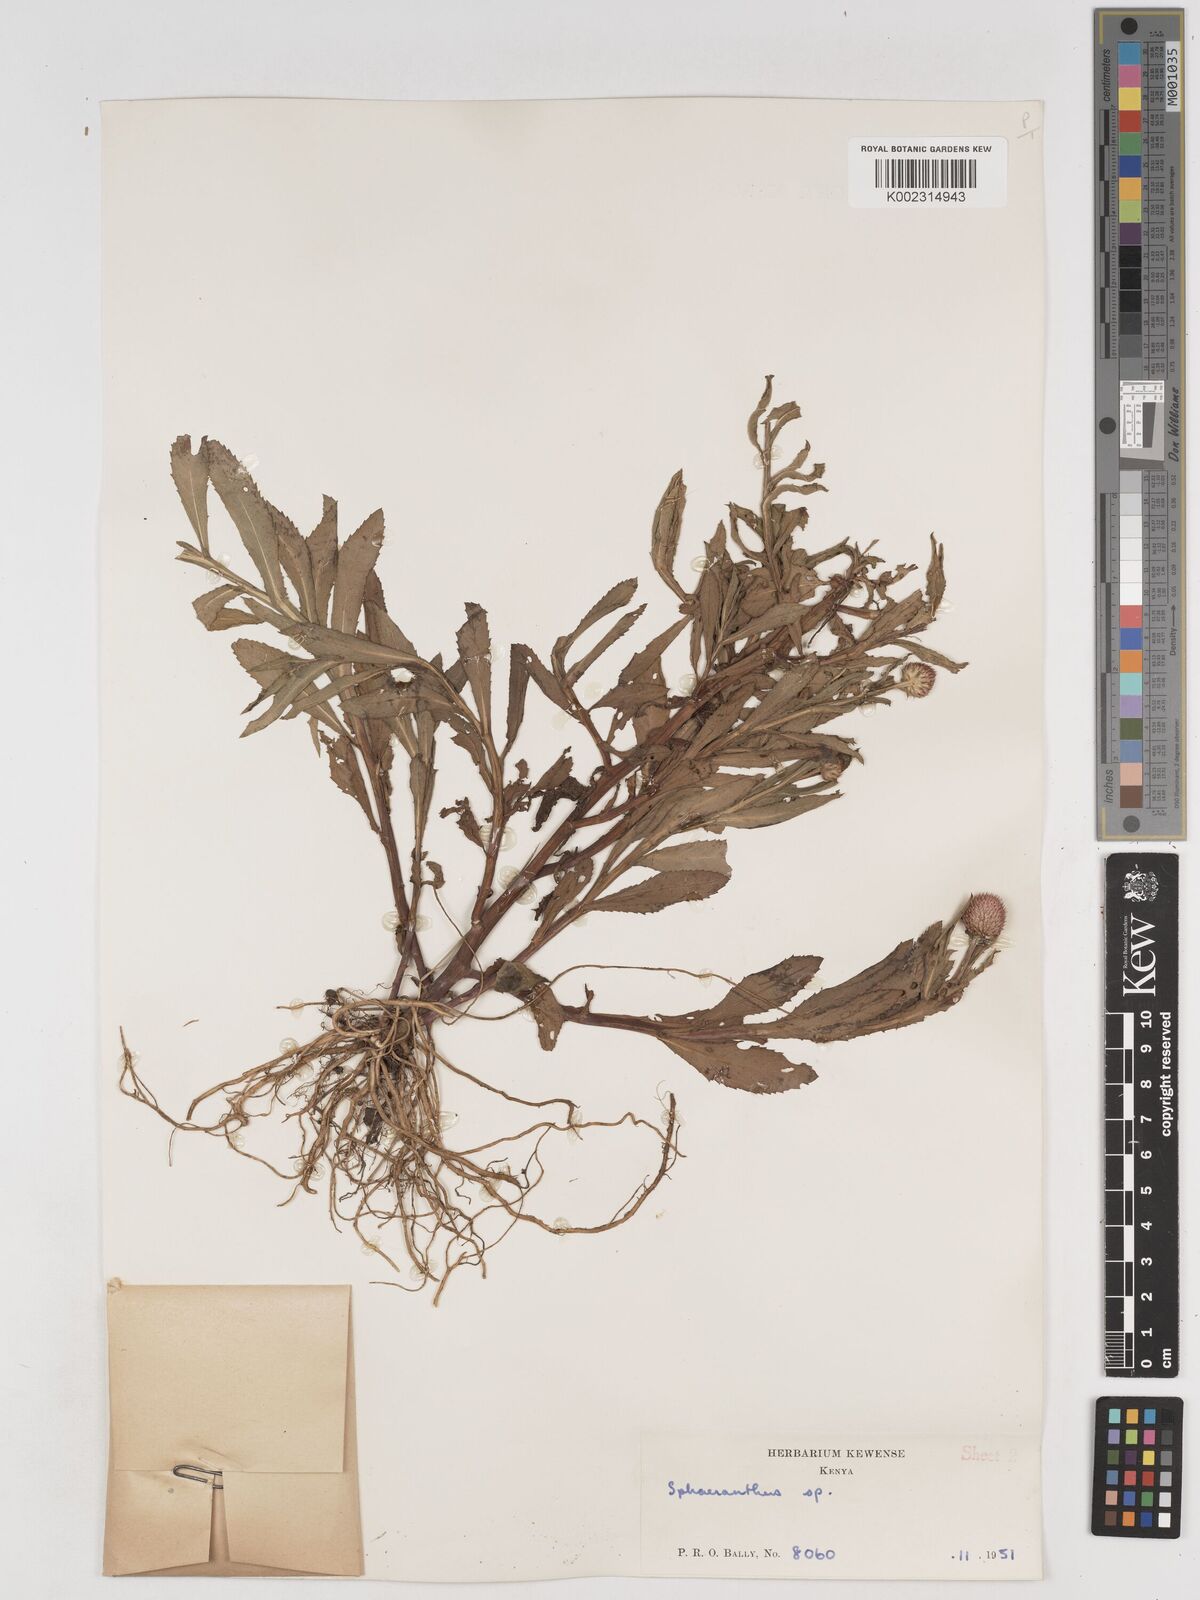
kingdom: Plantae
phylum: Tracheophyta
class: Magnoliopsida
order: Asterales
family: Asteraceae
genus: Sphaeranthus
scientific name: Sphaeranthus suaveolens
